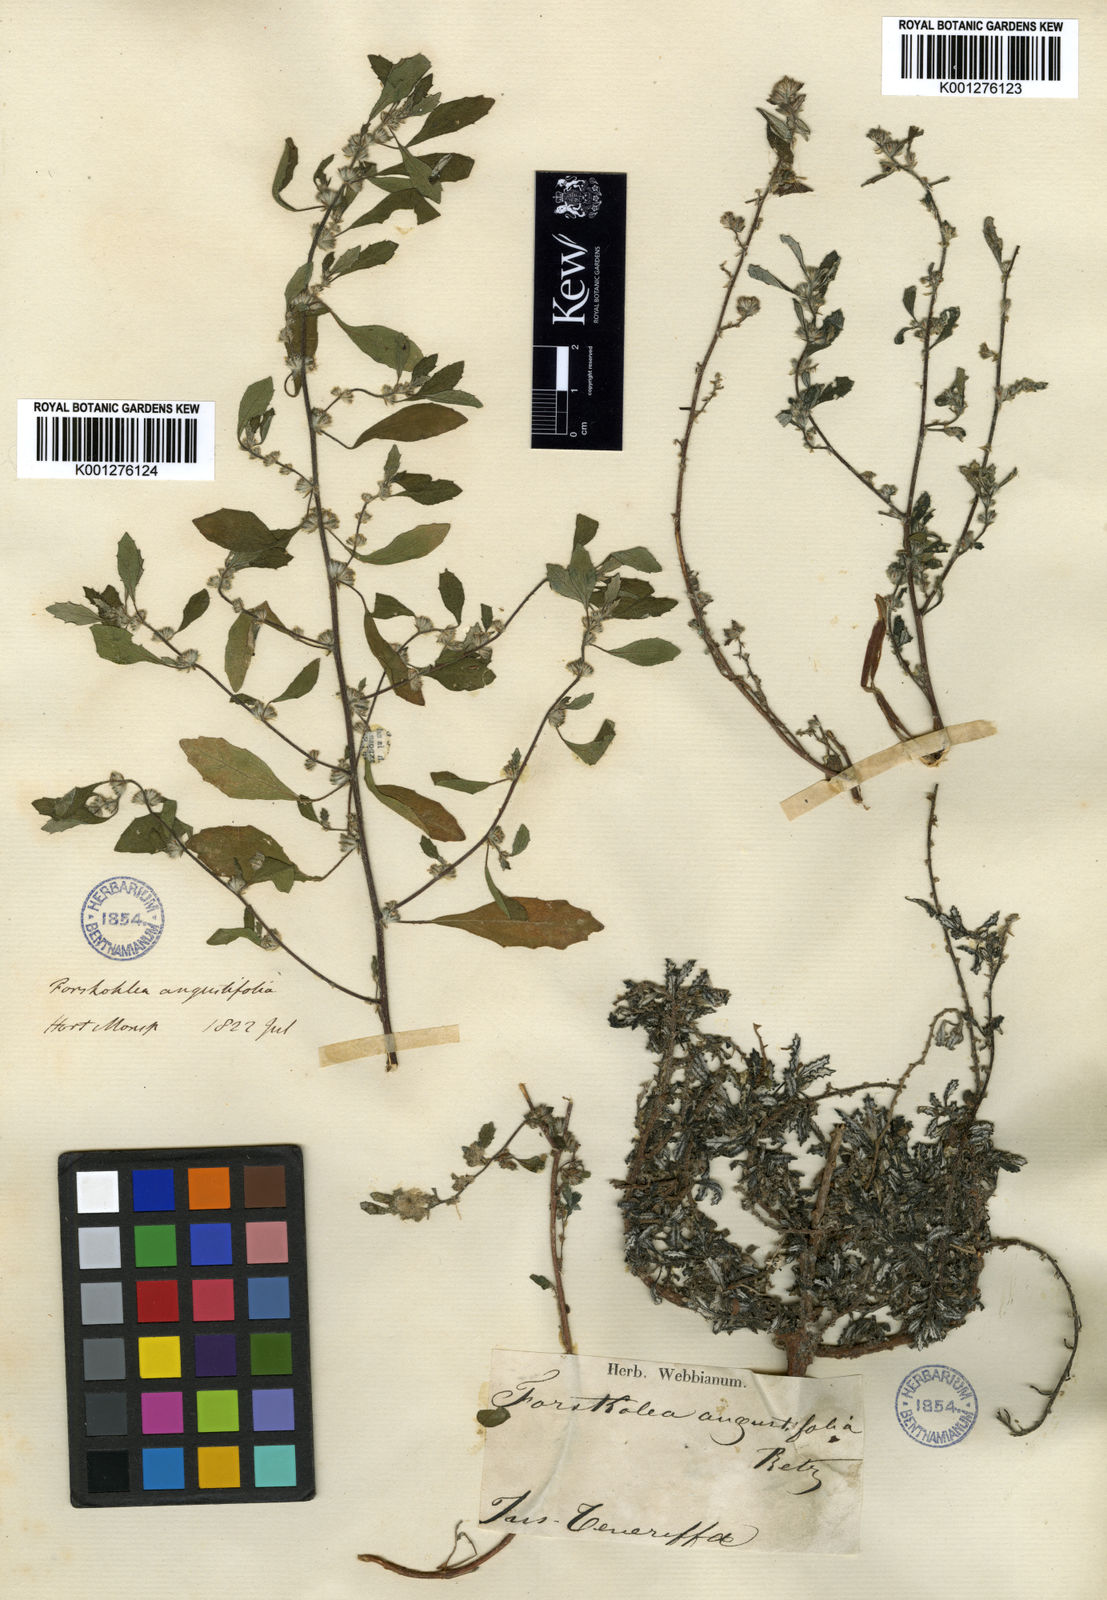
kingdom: Plantae
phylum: Tracheophyta
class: Magnoliopsida
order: Rosales
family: Urticaceae
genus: Forsskaolea
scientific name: Forsskaolea angustifolia
